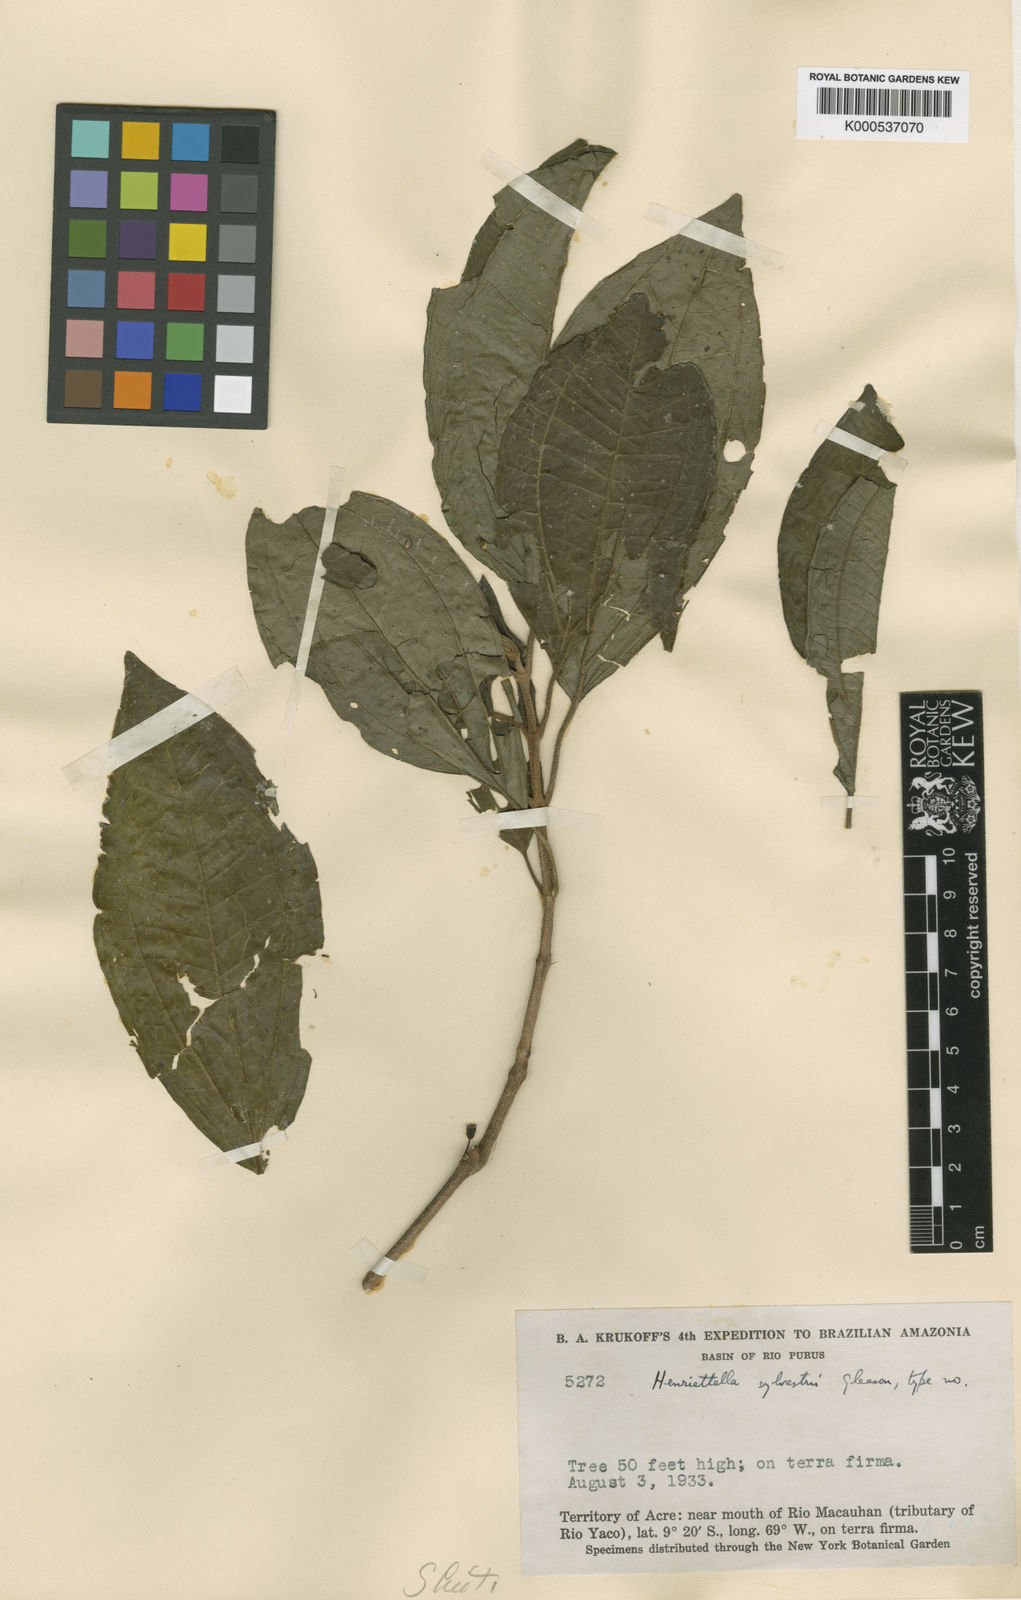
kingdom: Plantae
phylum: Tracheophyta
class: Magnoliopsida
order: Myrtales
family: Melastomataceae
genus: Henriettea
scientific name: Henriettea sylvestris
